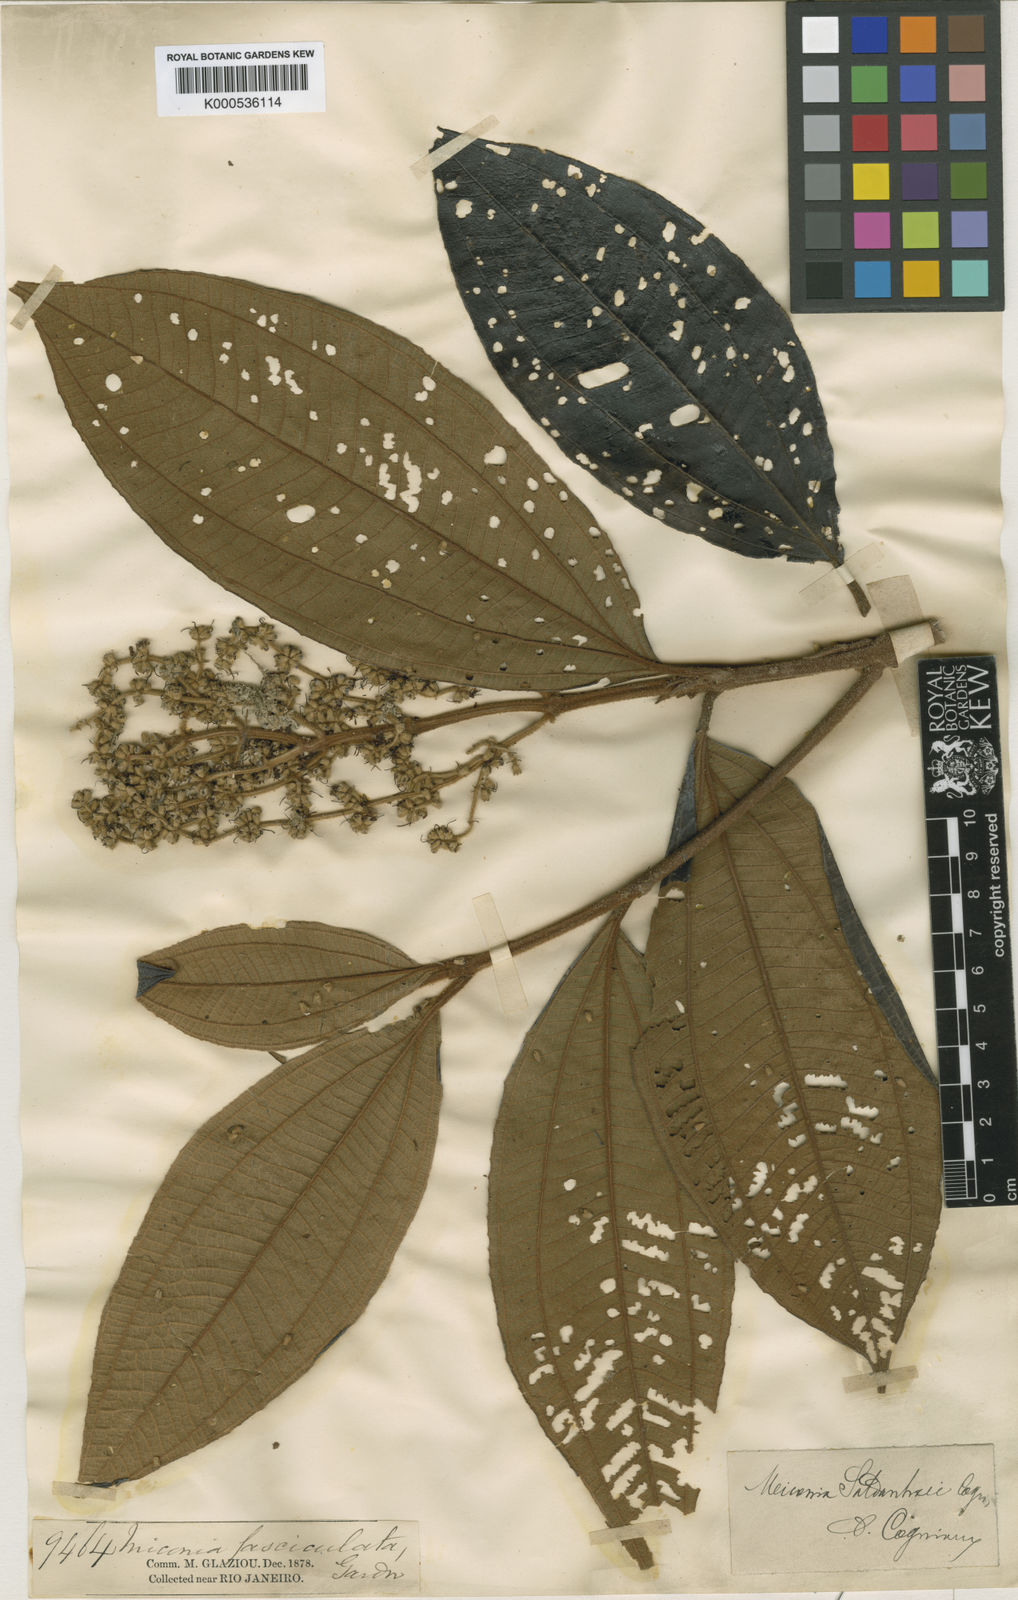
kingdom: Plantae
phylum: Tracheophyta
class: Magnoliopsida
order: Myrtales
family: Melastomataceae
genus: Miconia
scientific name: Miconia fasciculata
